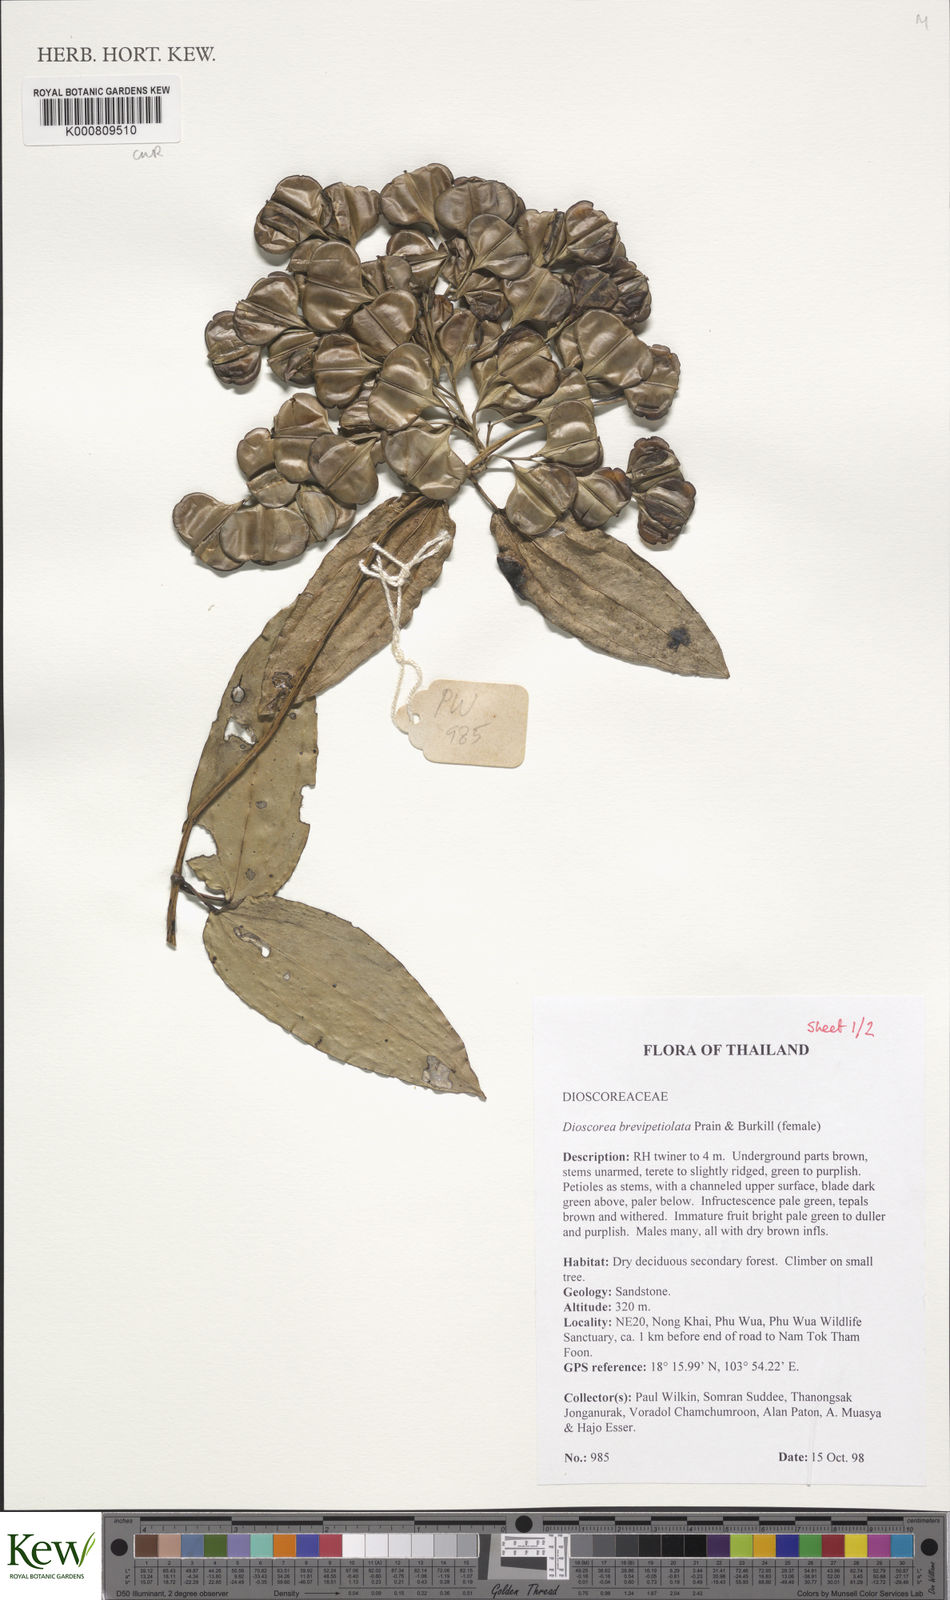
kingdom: Plantae
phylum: Tracheophyta
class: Liliopsida
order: Dioscoreales
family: Dioscoreaceae
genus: Dioscorea
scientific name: Dioscorea brevipetiolata
